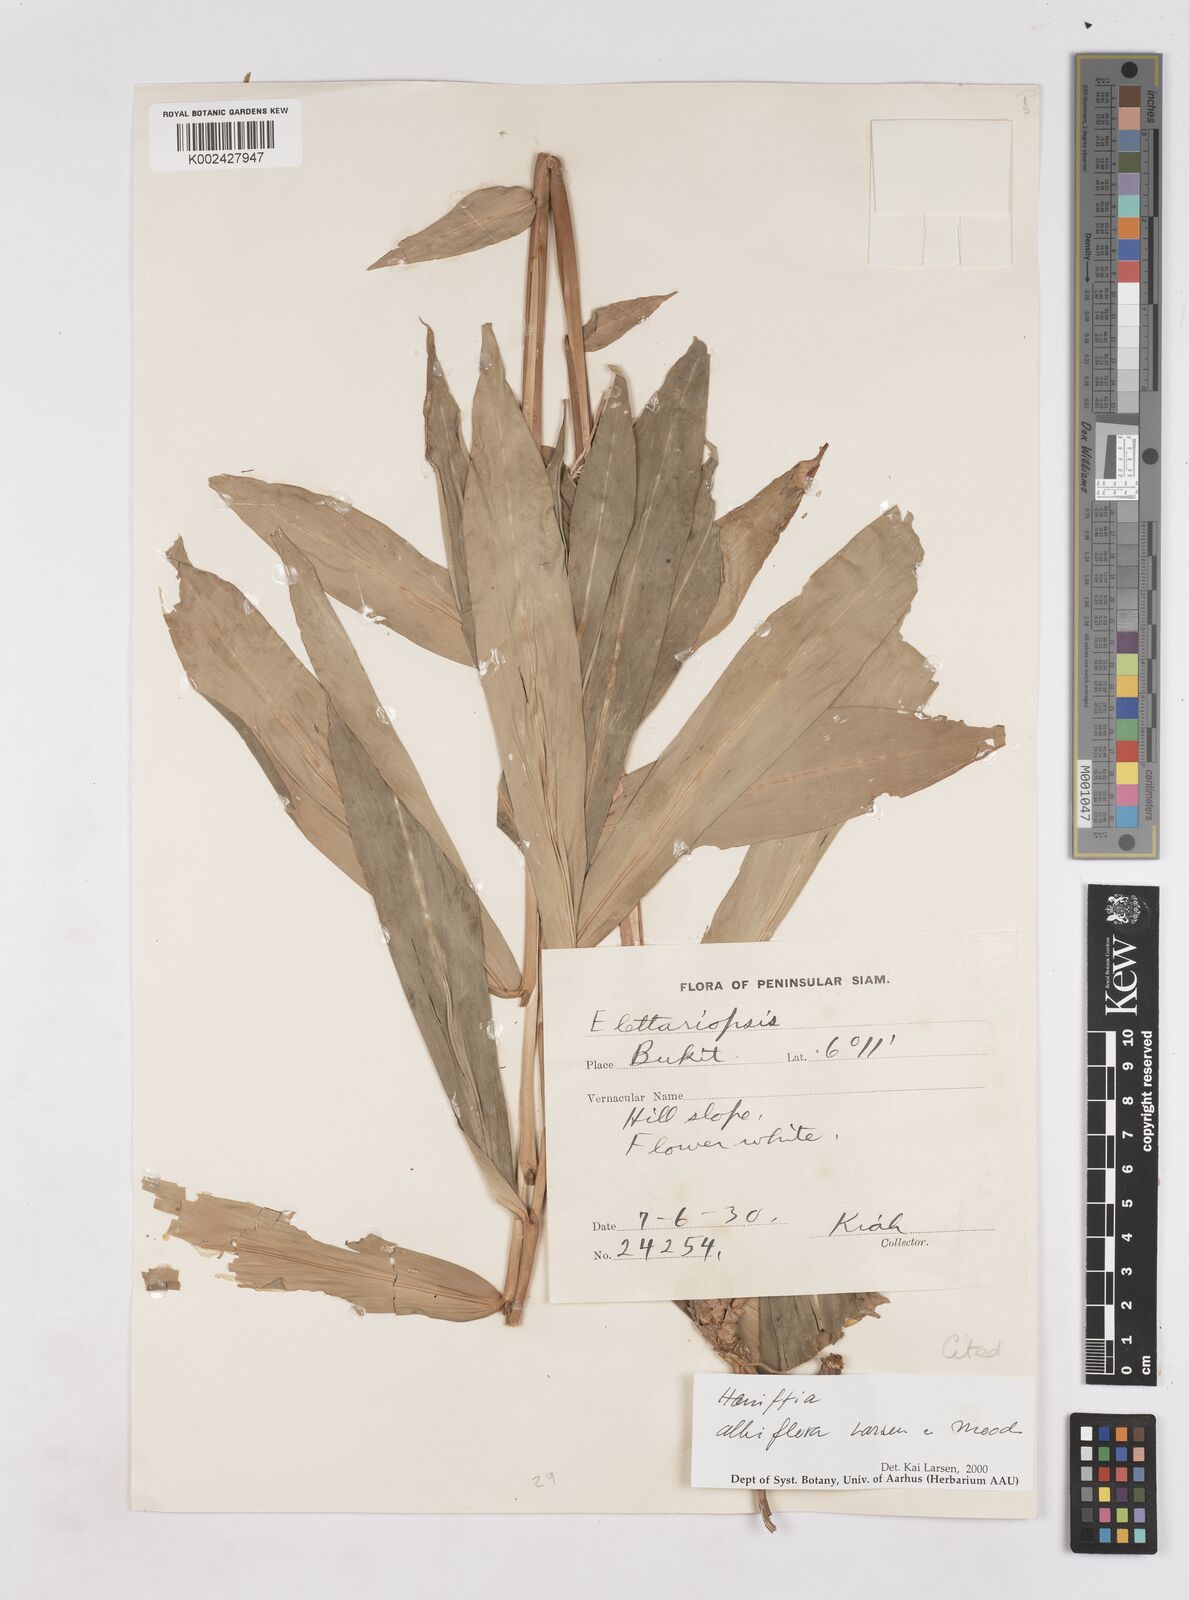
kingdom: Plantae
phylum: Tracheophyta
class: Liliopsida
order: Zingiberales
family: Zingiberaceae
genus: Haniffia
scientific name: Haniffia albiflora
